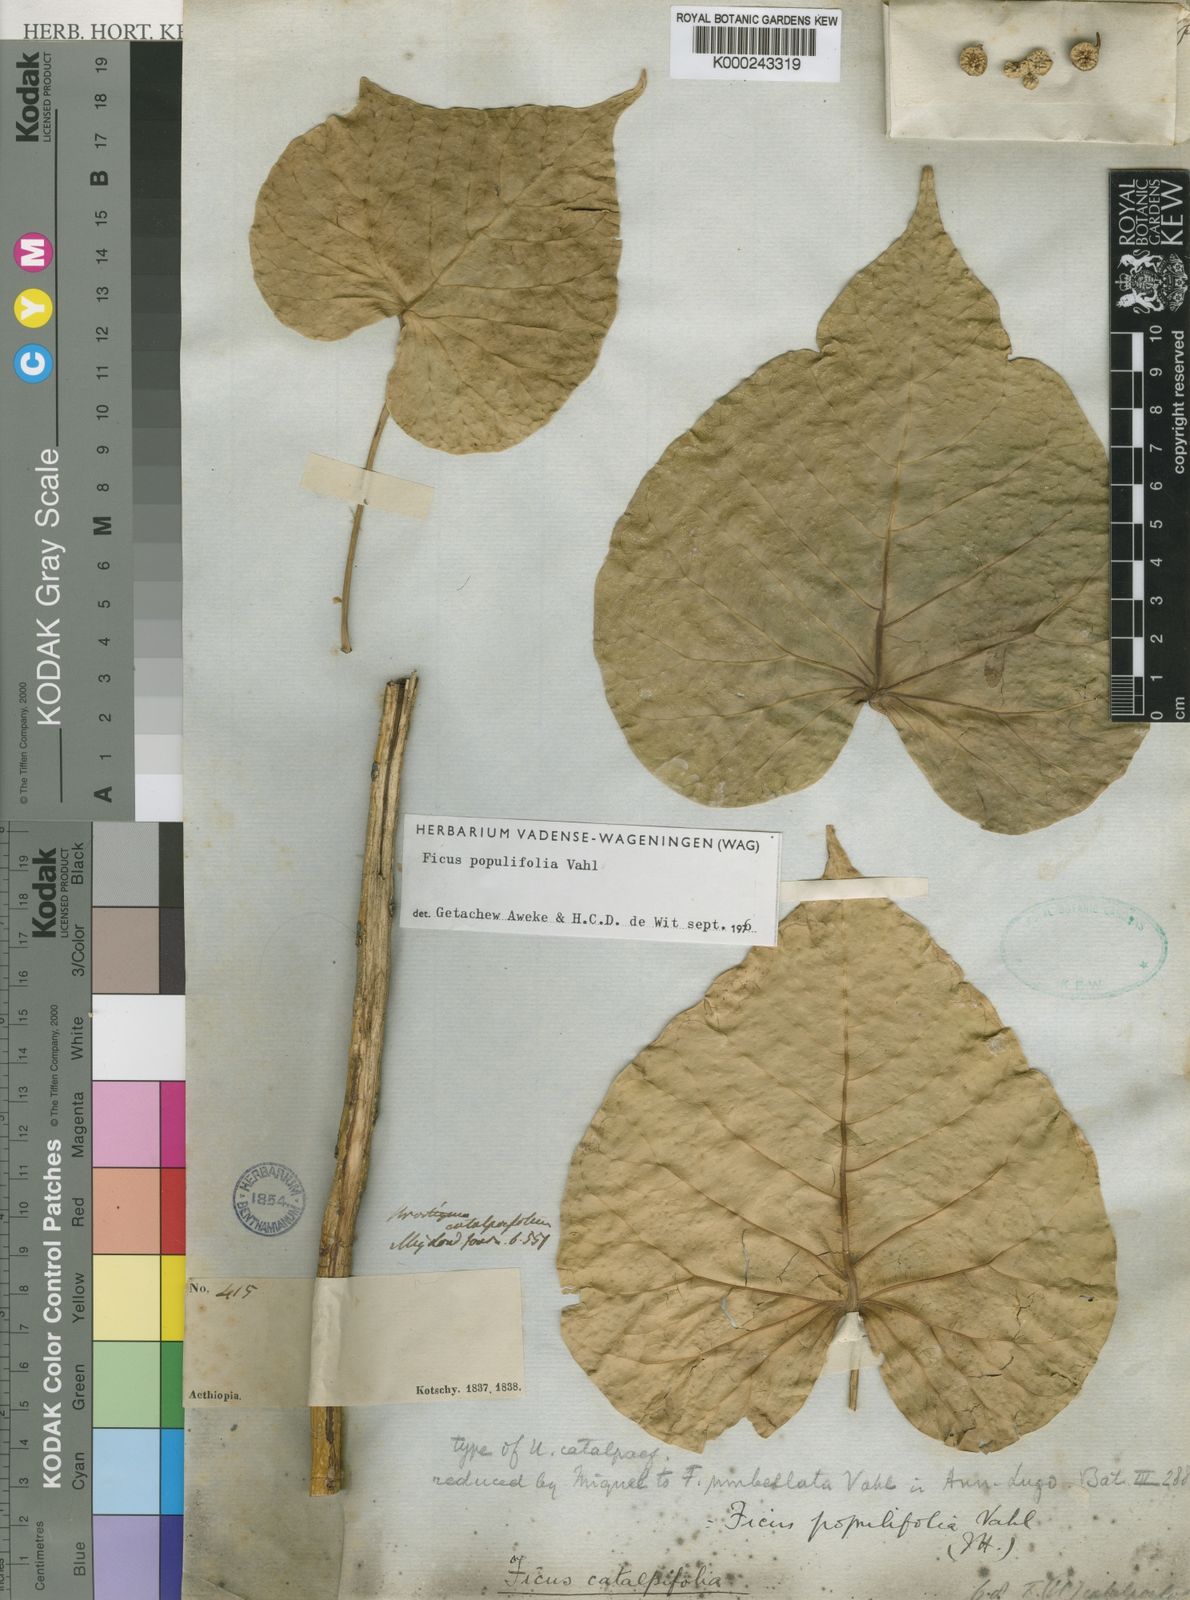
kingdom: Plantae
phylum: Tracheophyta
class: Magnoliopsida
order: Rosales
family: Moraceae
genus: Ficus
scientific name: Ficus populifolia
